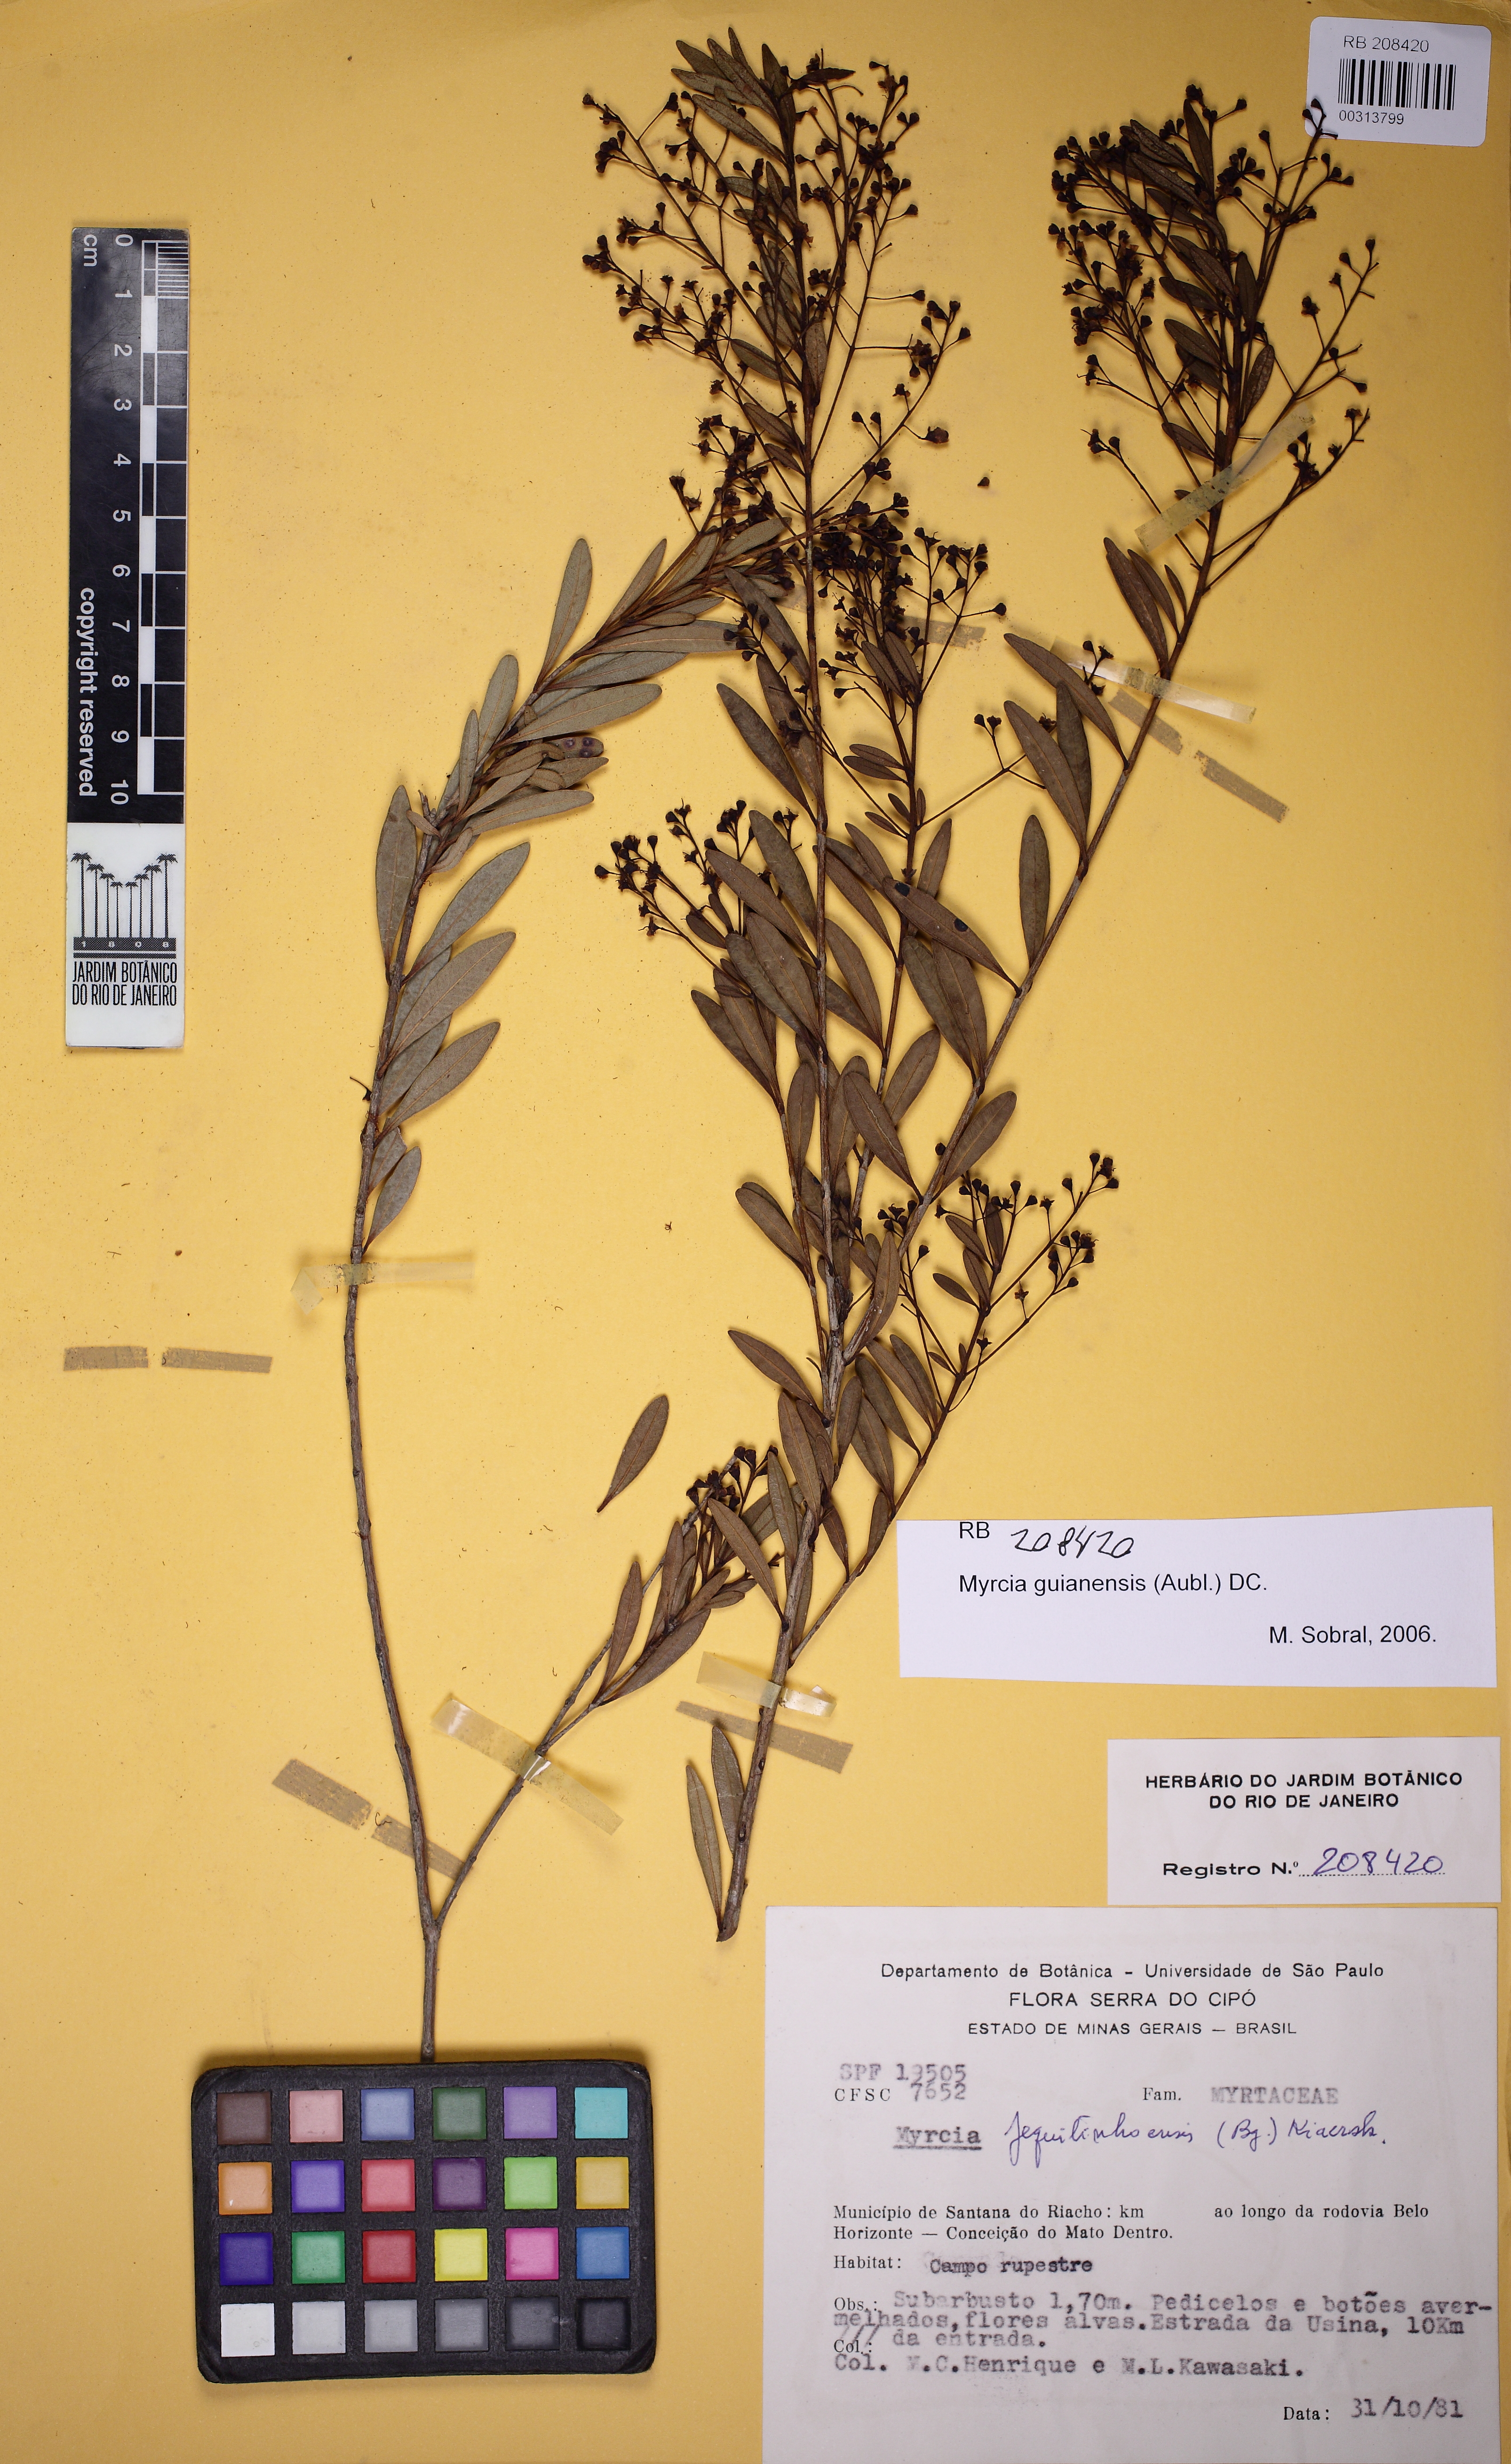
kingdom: Plantae
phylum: Tracheophyta
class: Magnoliopsida
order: Myrtales
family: Myrtaceae
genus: Myrcia
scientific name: Myrcia guianensis
